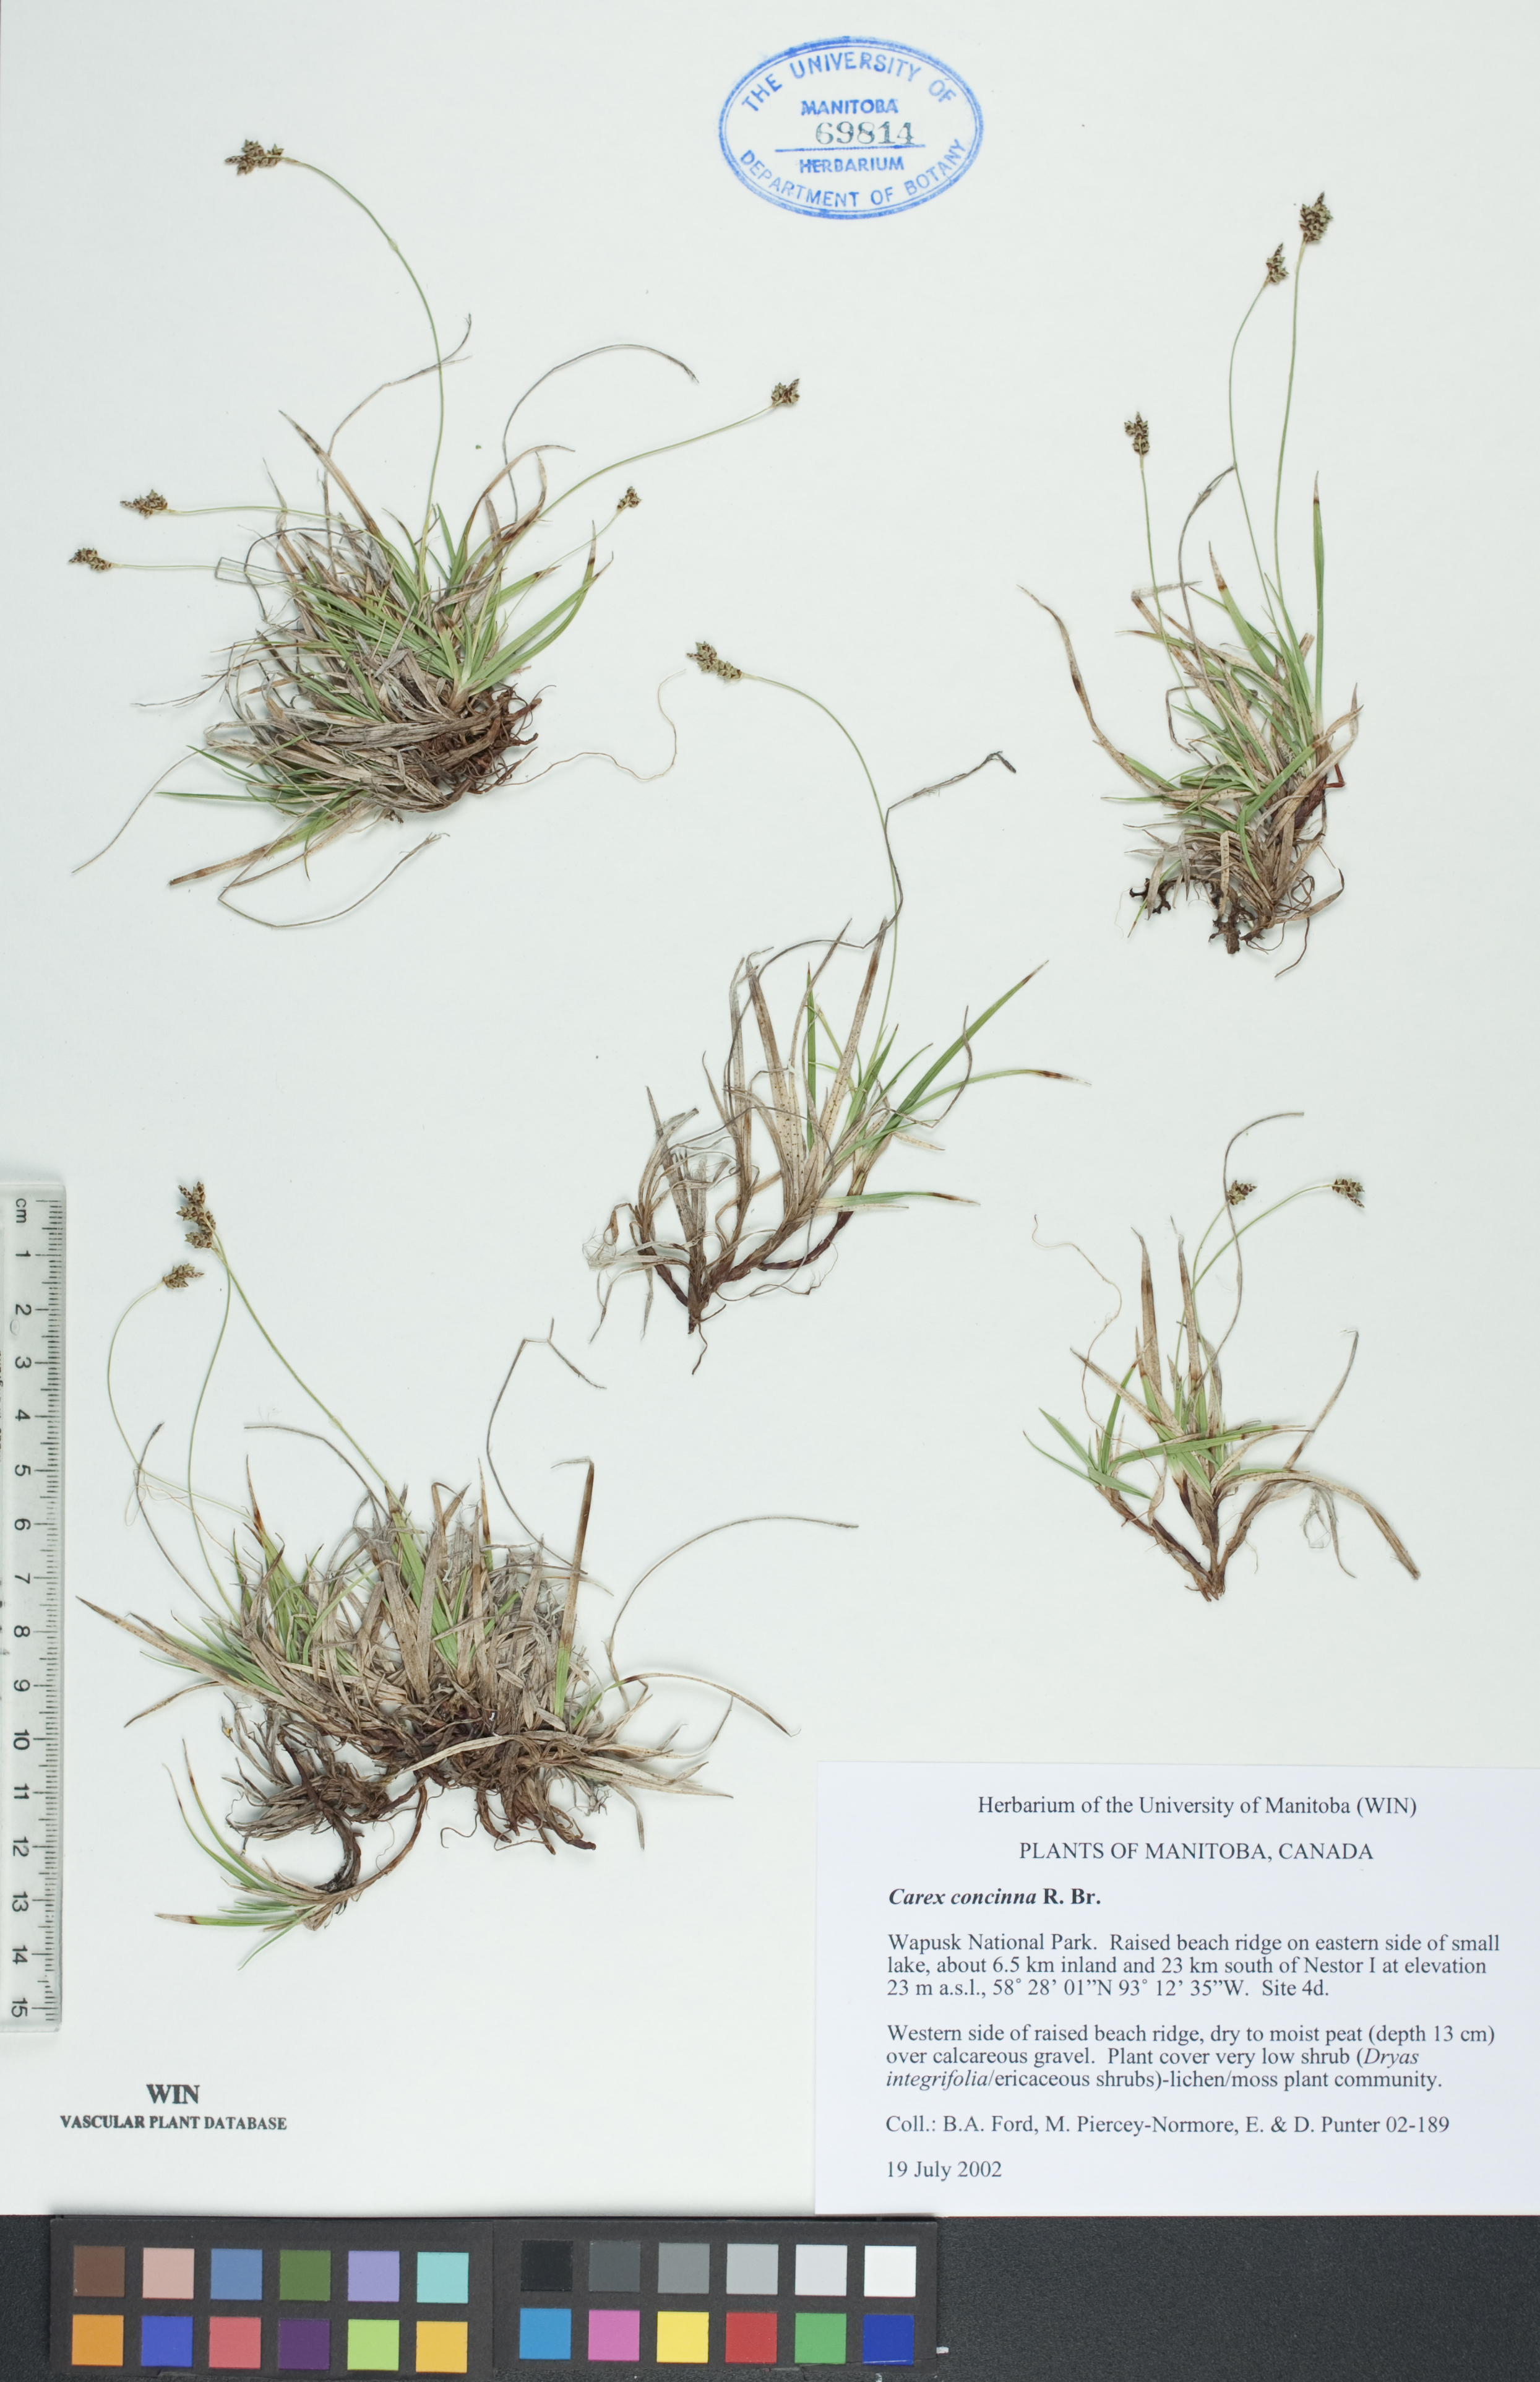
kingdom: Plantae
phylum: Tracheophyta
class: Liliopsida
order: Poales
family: Cyperaceae
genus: Carex
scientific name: Carex concinna
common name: Beautiful sedge
